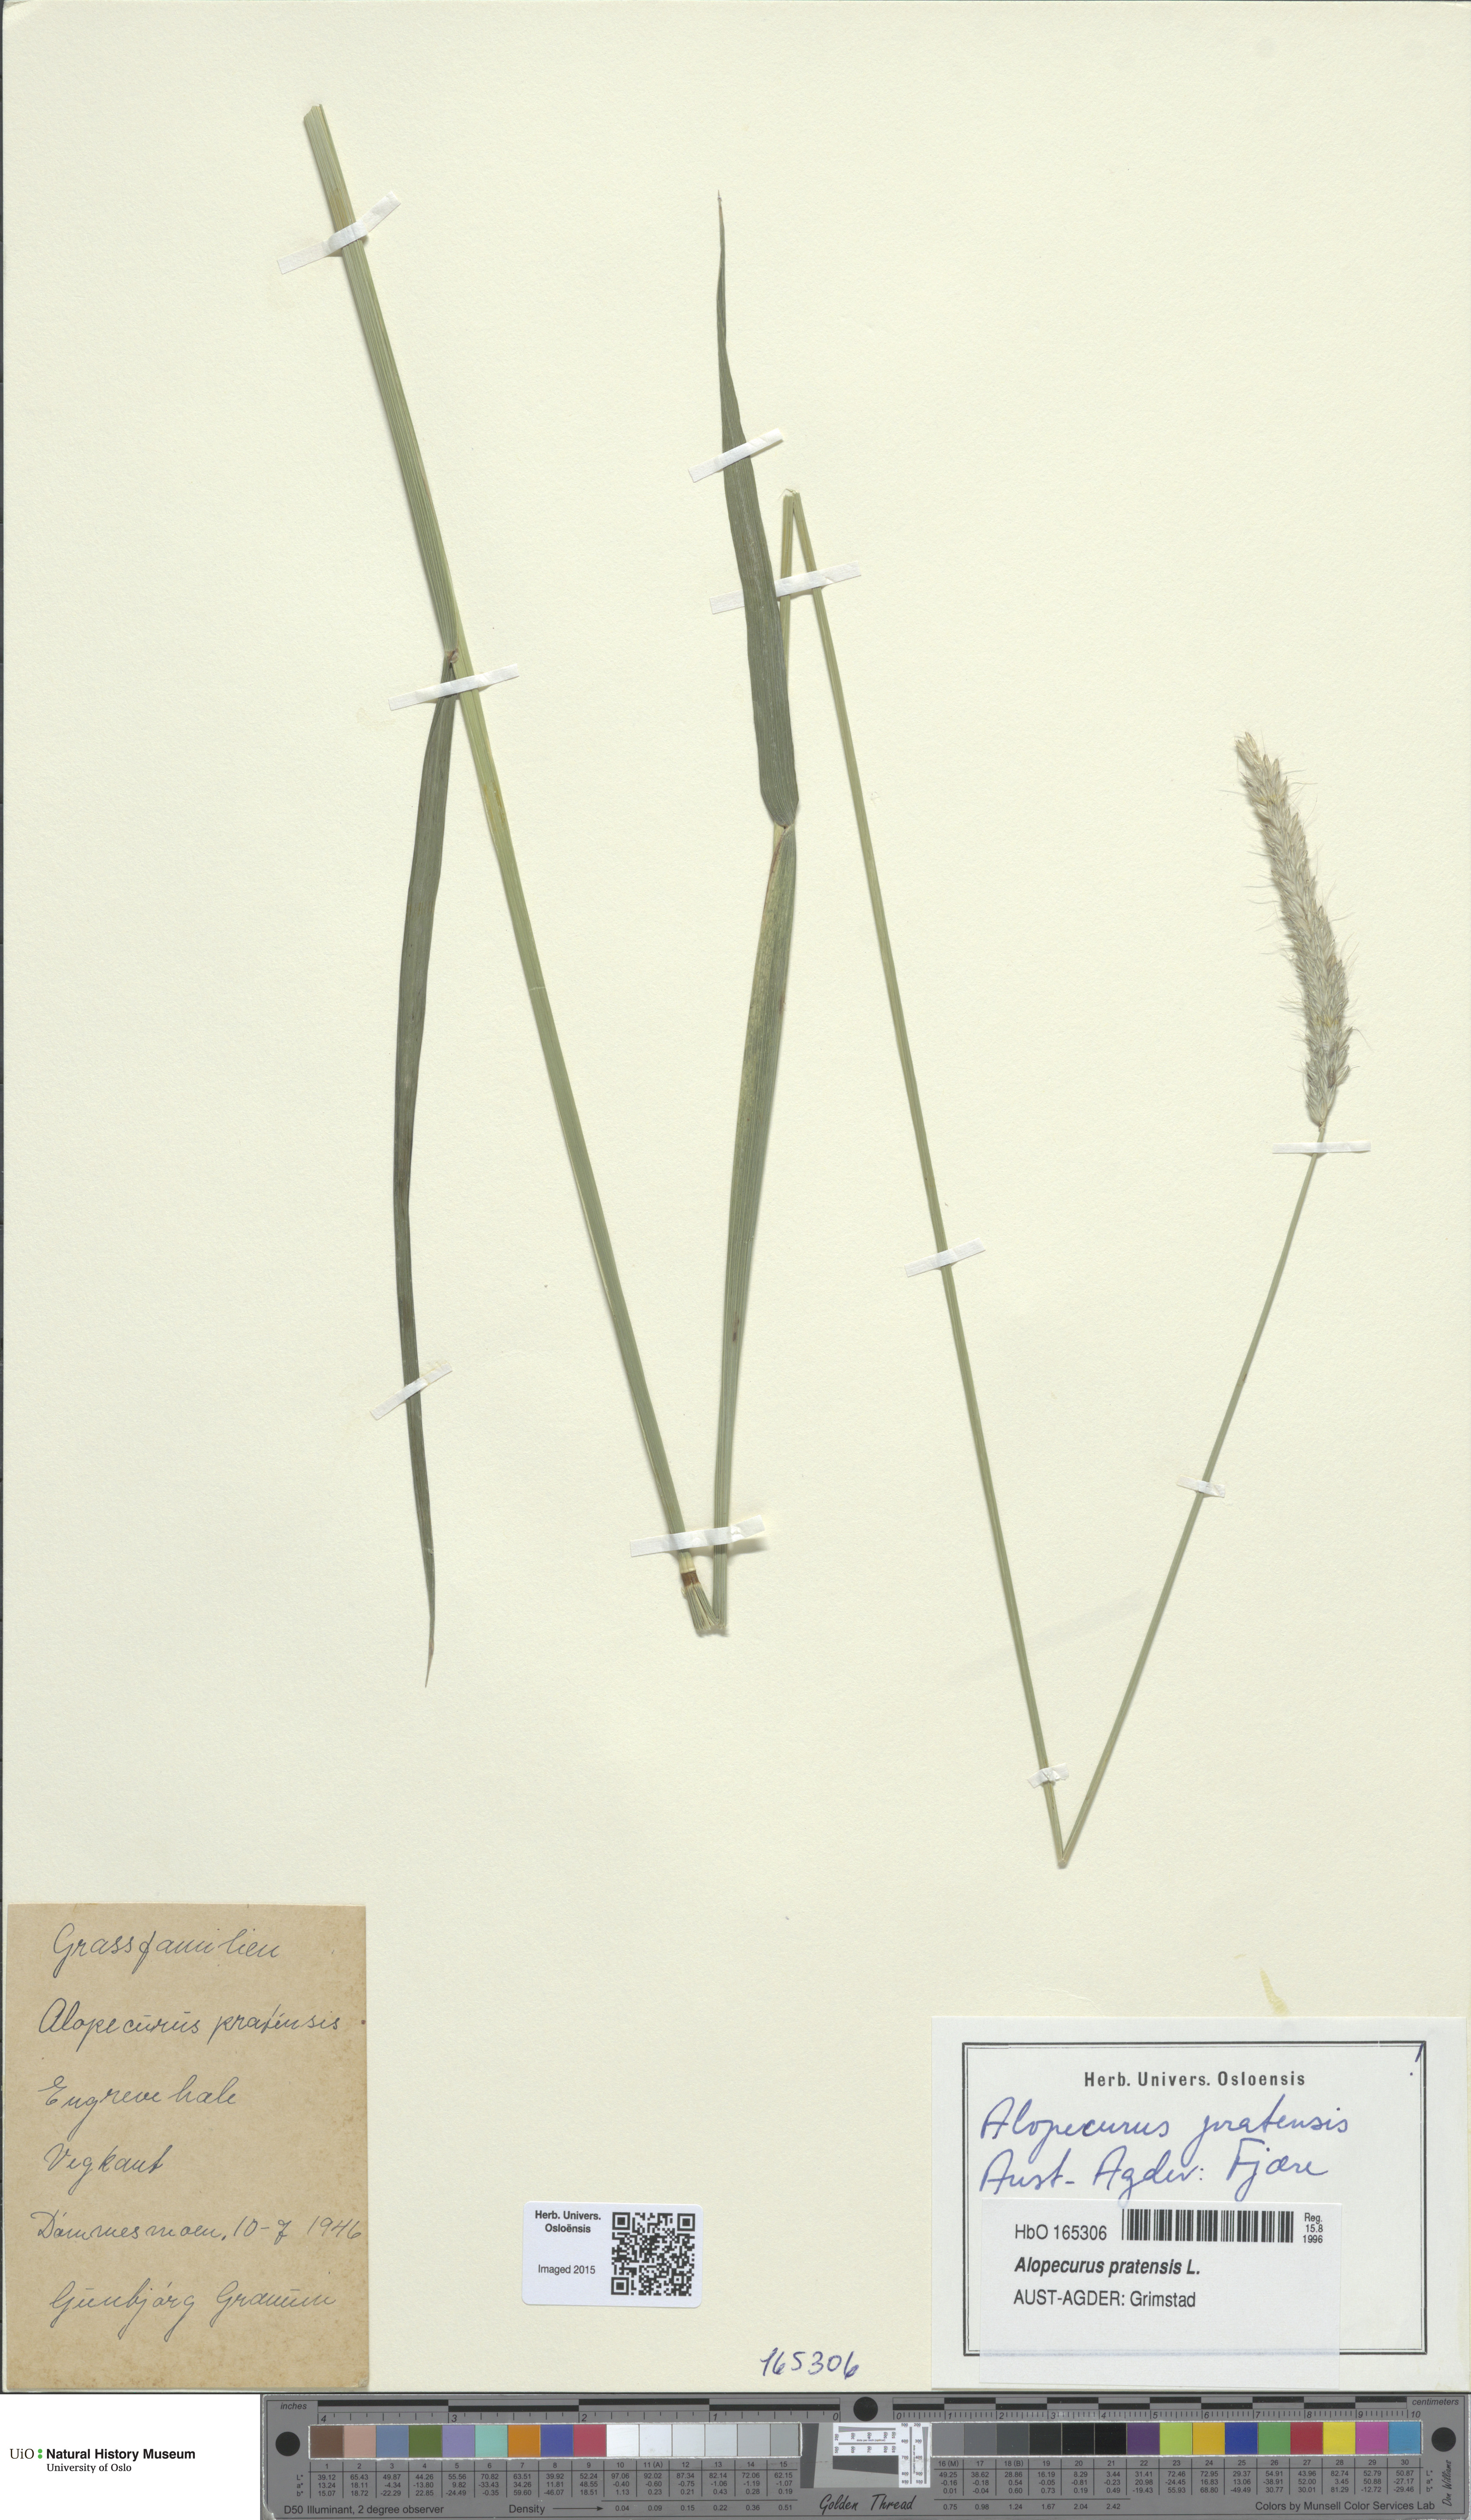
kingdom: Plantae
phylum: Tracheophyta
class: Liliopsida
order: Poales
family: Poaceae
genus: Alopecurus
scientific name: Alopecurus pratensis
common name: Meadow foxtail
